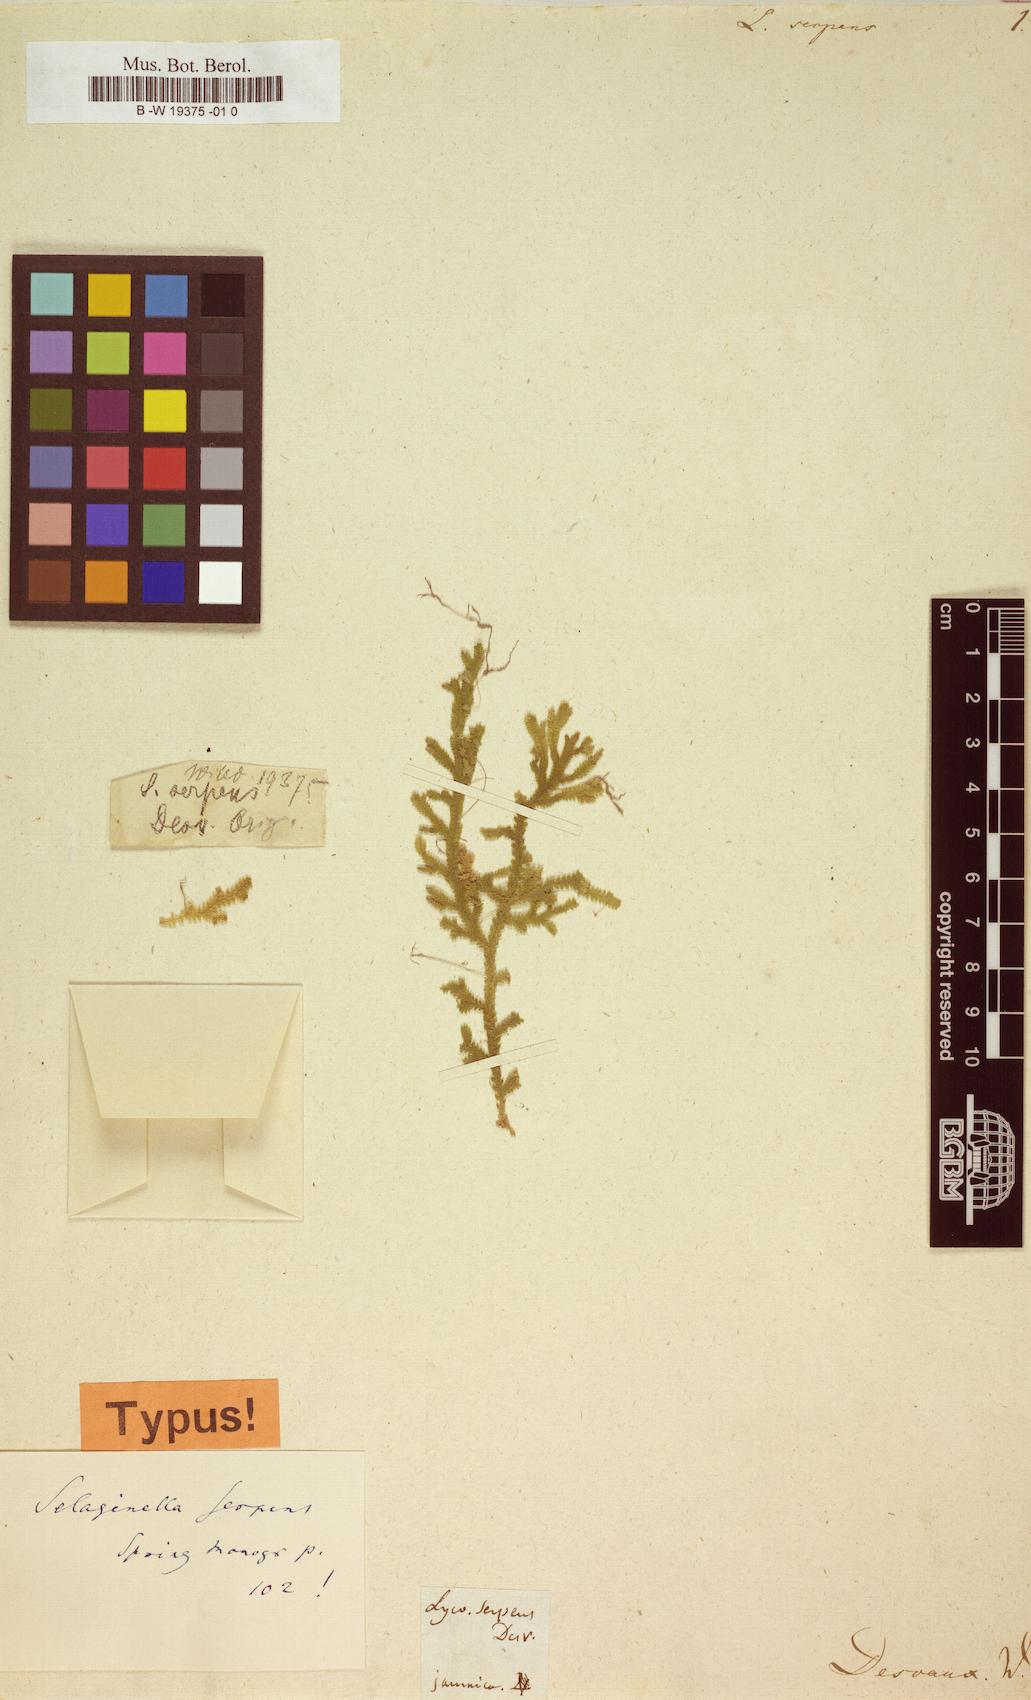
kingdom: Plantae
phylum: Tracheophyta
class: Lycopodiopsida
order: Lycopodiales
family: Lycopodiaceae
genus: Lycopodium
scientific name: Lycopodium clavatum
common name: Stag's-horn clubmoss
